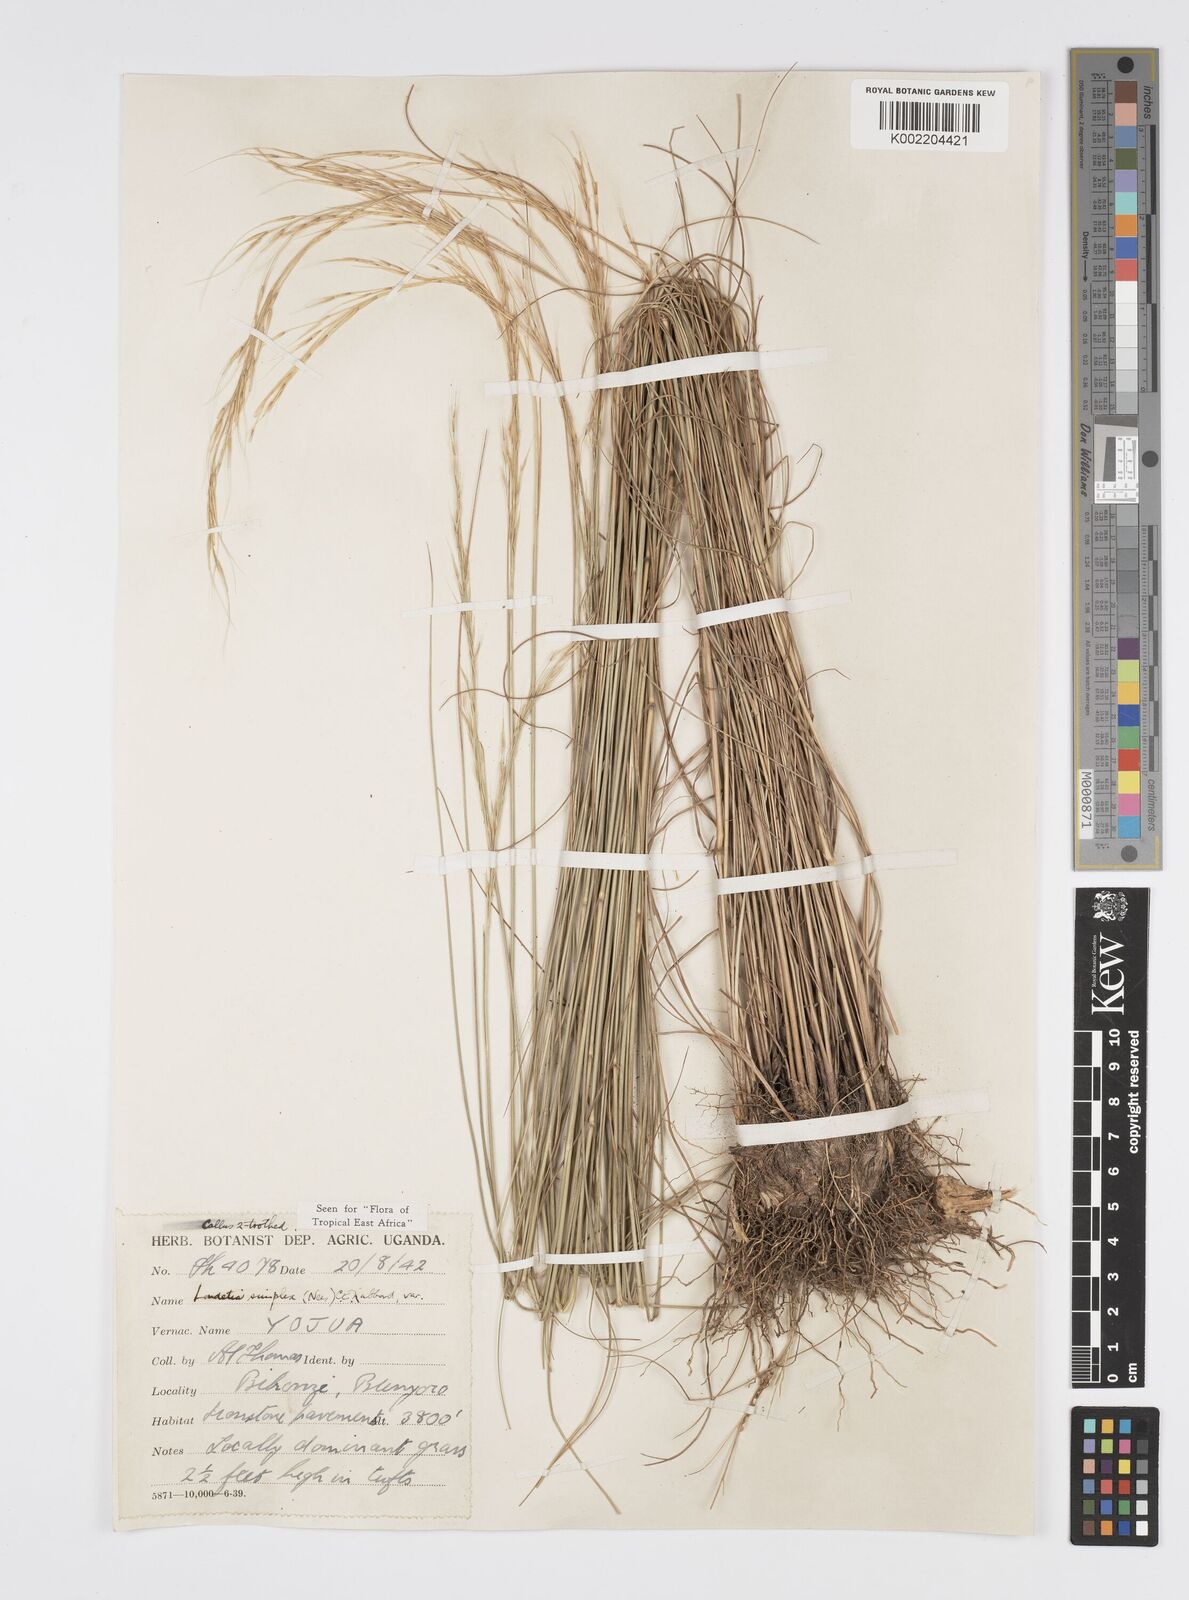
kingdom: Plantae
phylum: Tracheophyta
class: Liliopsida
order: Poales
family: Poaceae
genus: Loudetia
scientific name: Loudetia simplex
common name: Common russet grass
